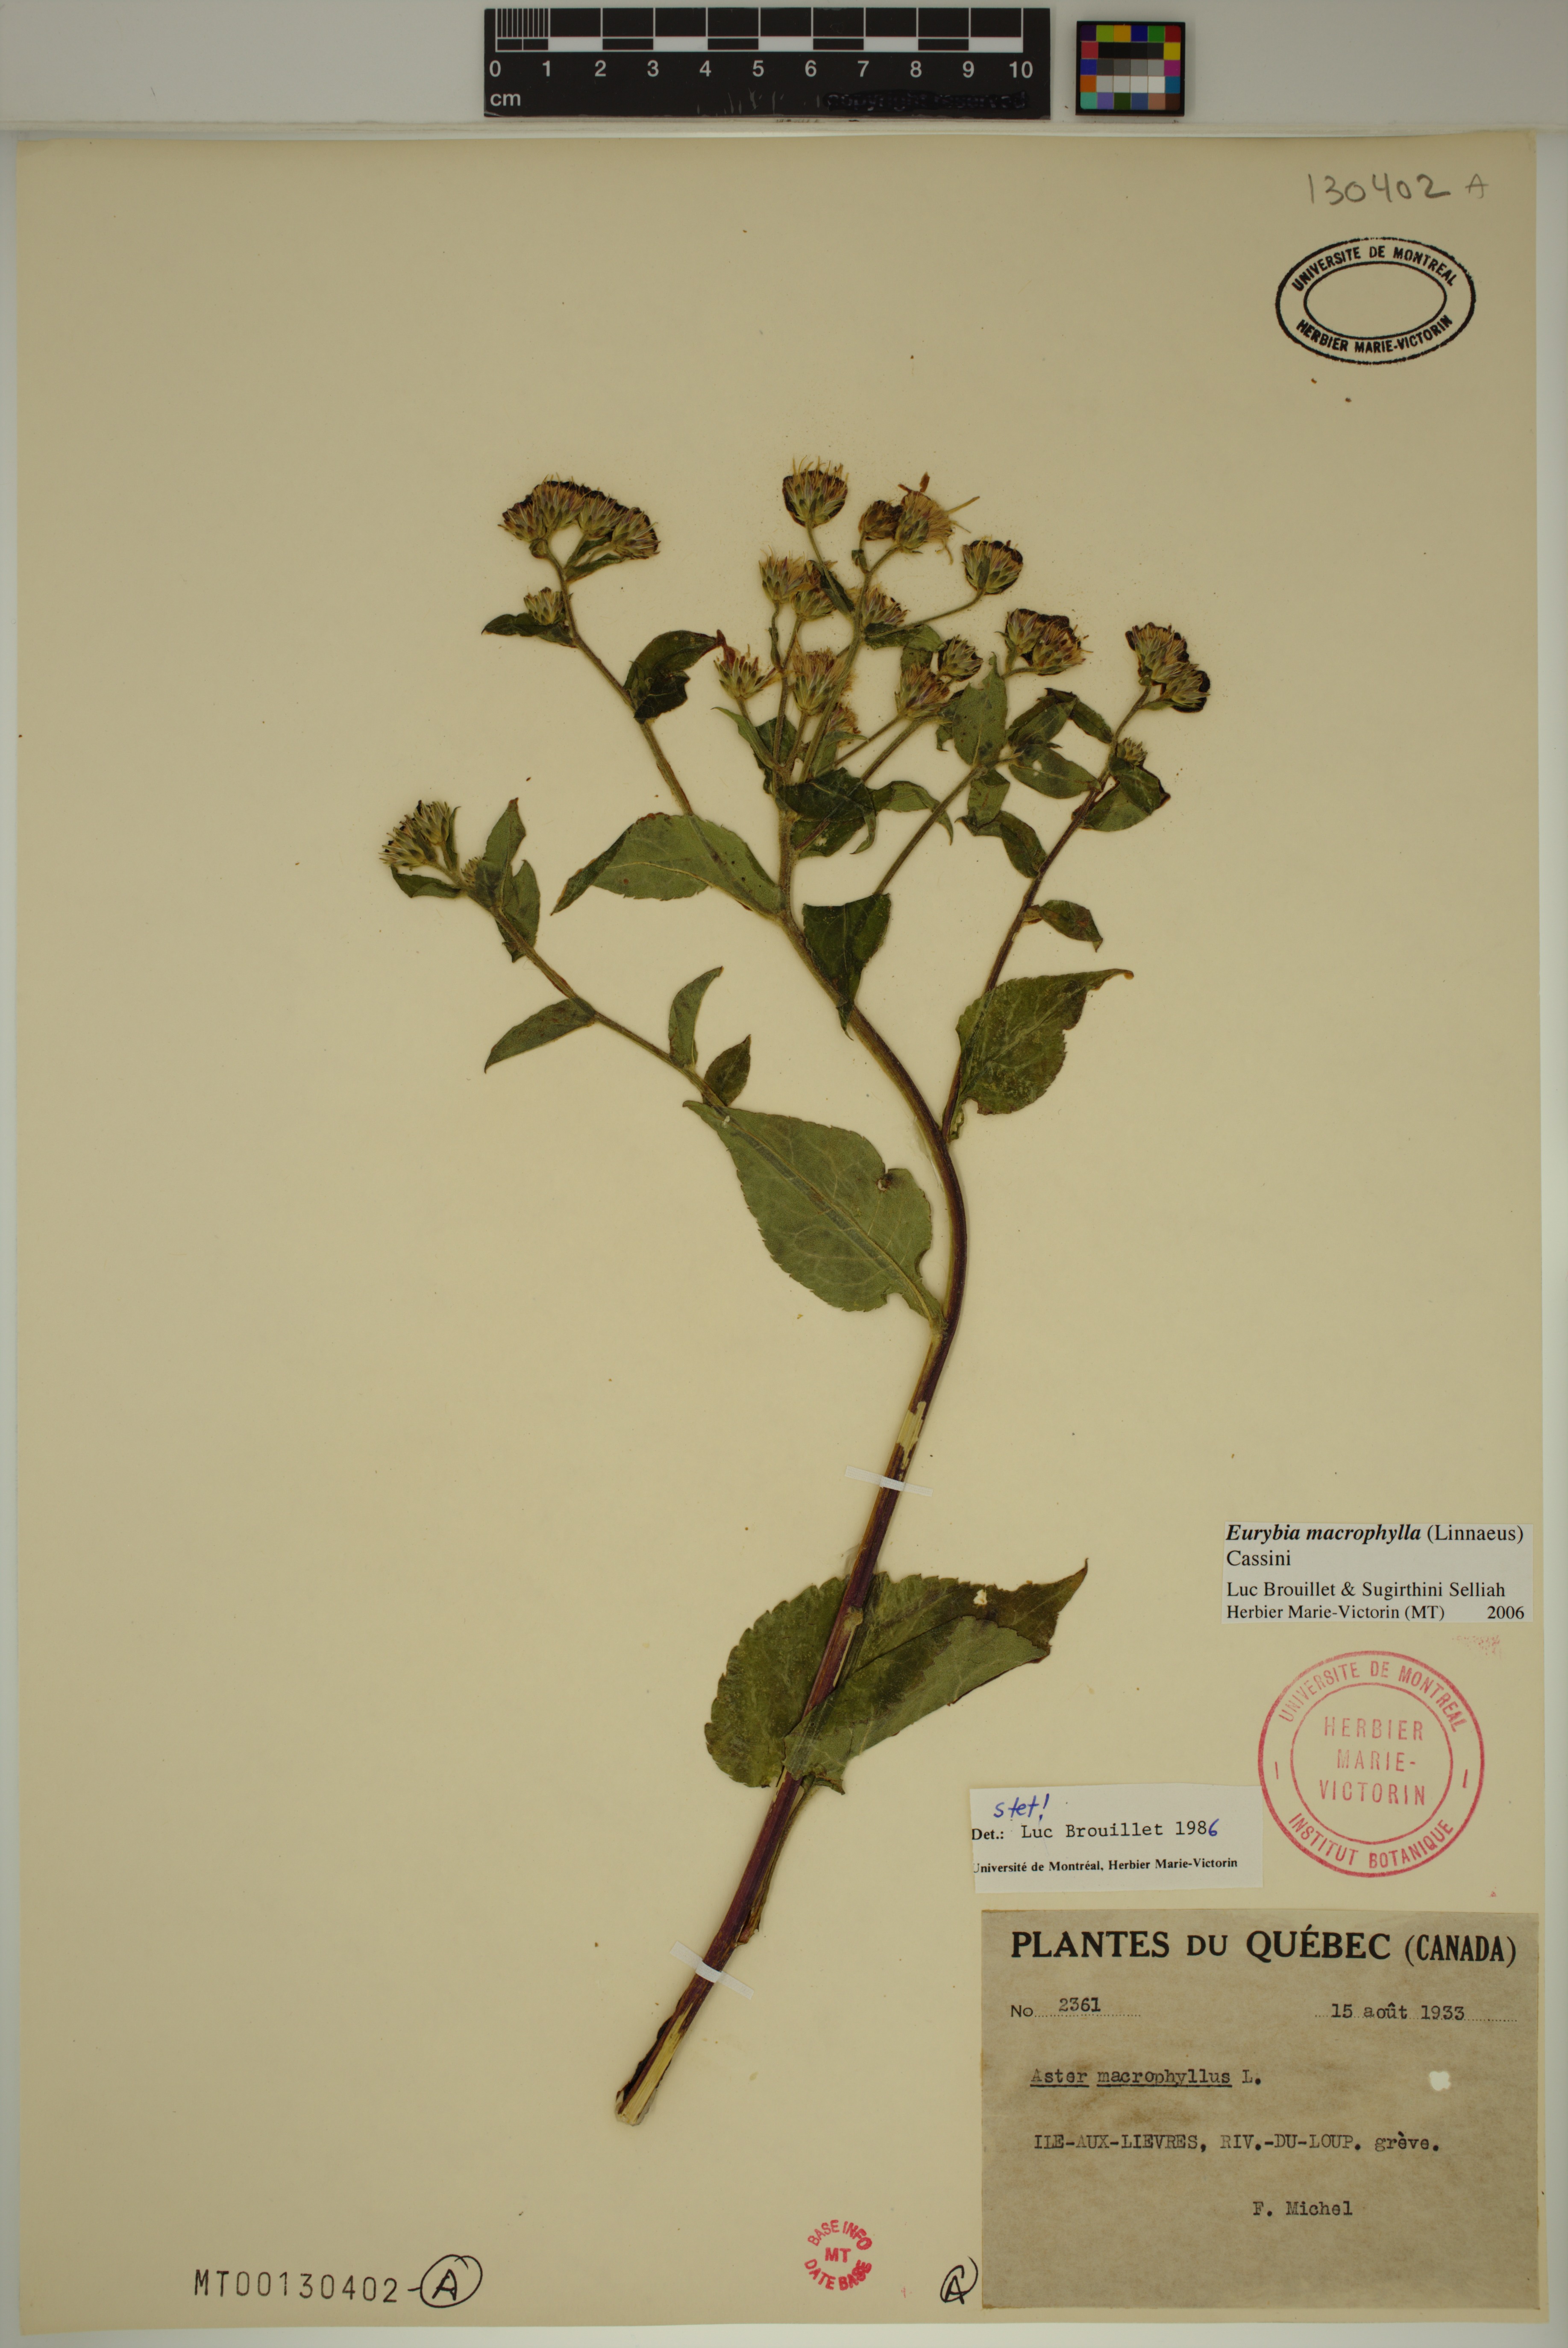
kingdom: Plantae
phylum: Tracheophyta
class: Magnoliopsida
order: Asterales
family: Asteraceae
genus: Eurybia
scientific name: Eurybia macrophylla
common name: Big-leaved aster
